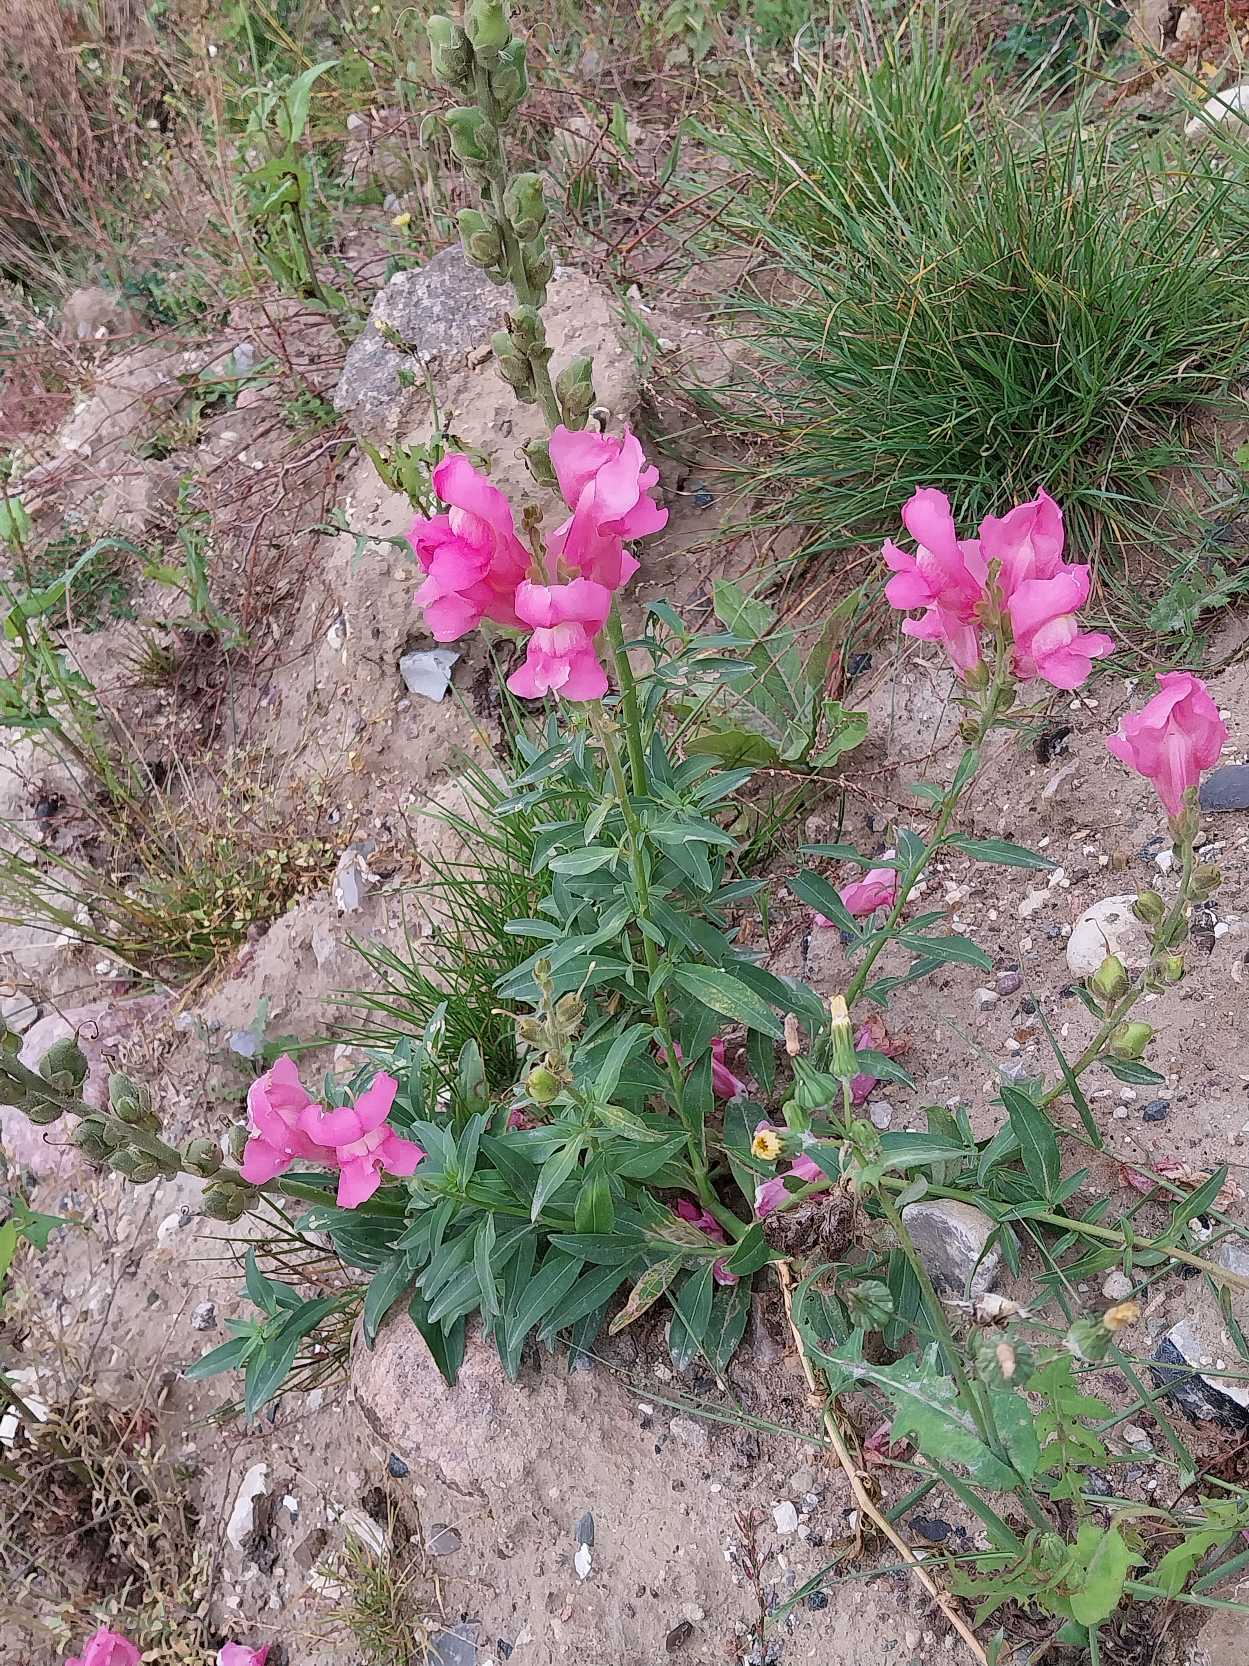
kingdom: Plantae
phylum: Tracheophyta
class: Magnoliopsida
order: Lamiales
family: Plantaginaceae
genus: Antirrhinum
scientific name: Antirrhinum majus
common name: Have-løvemund
